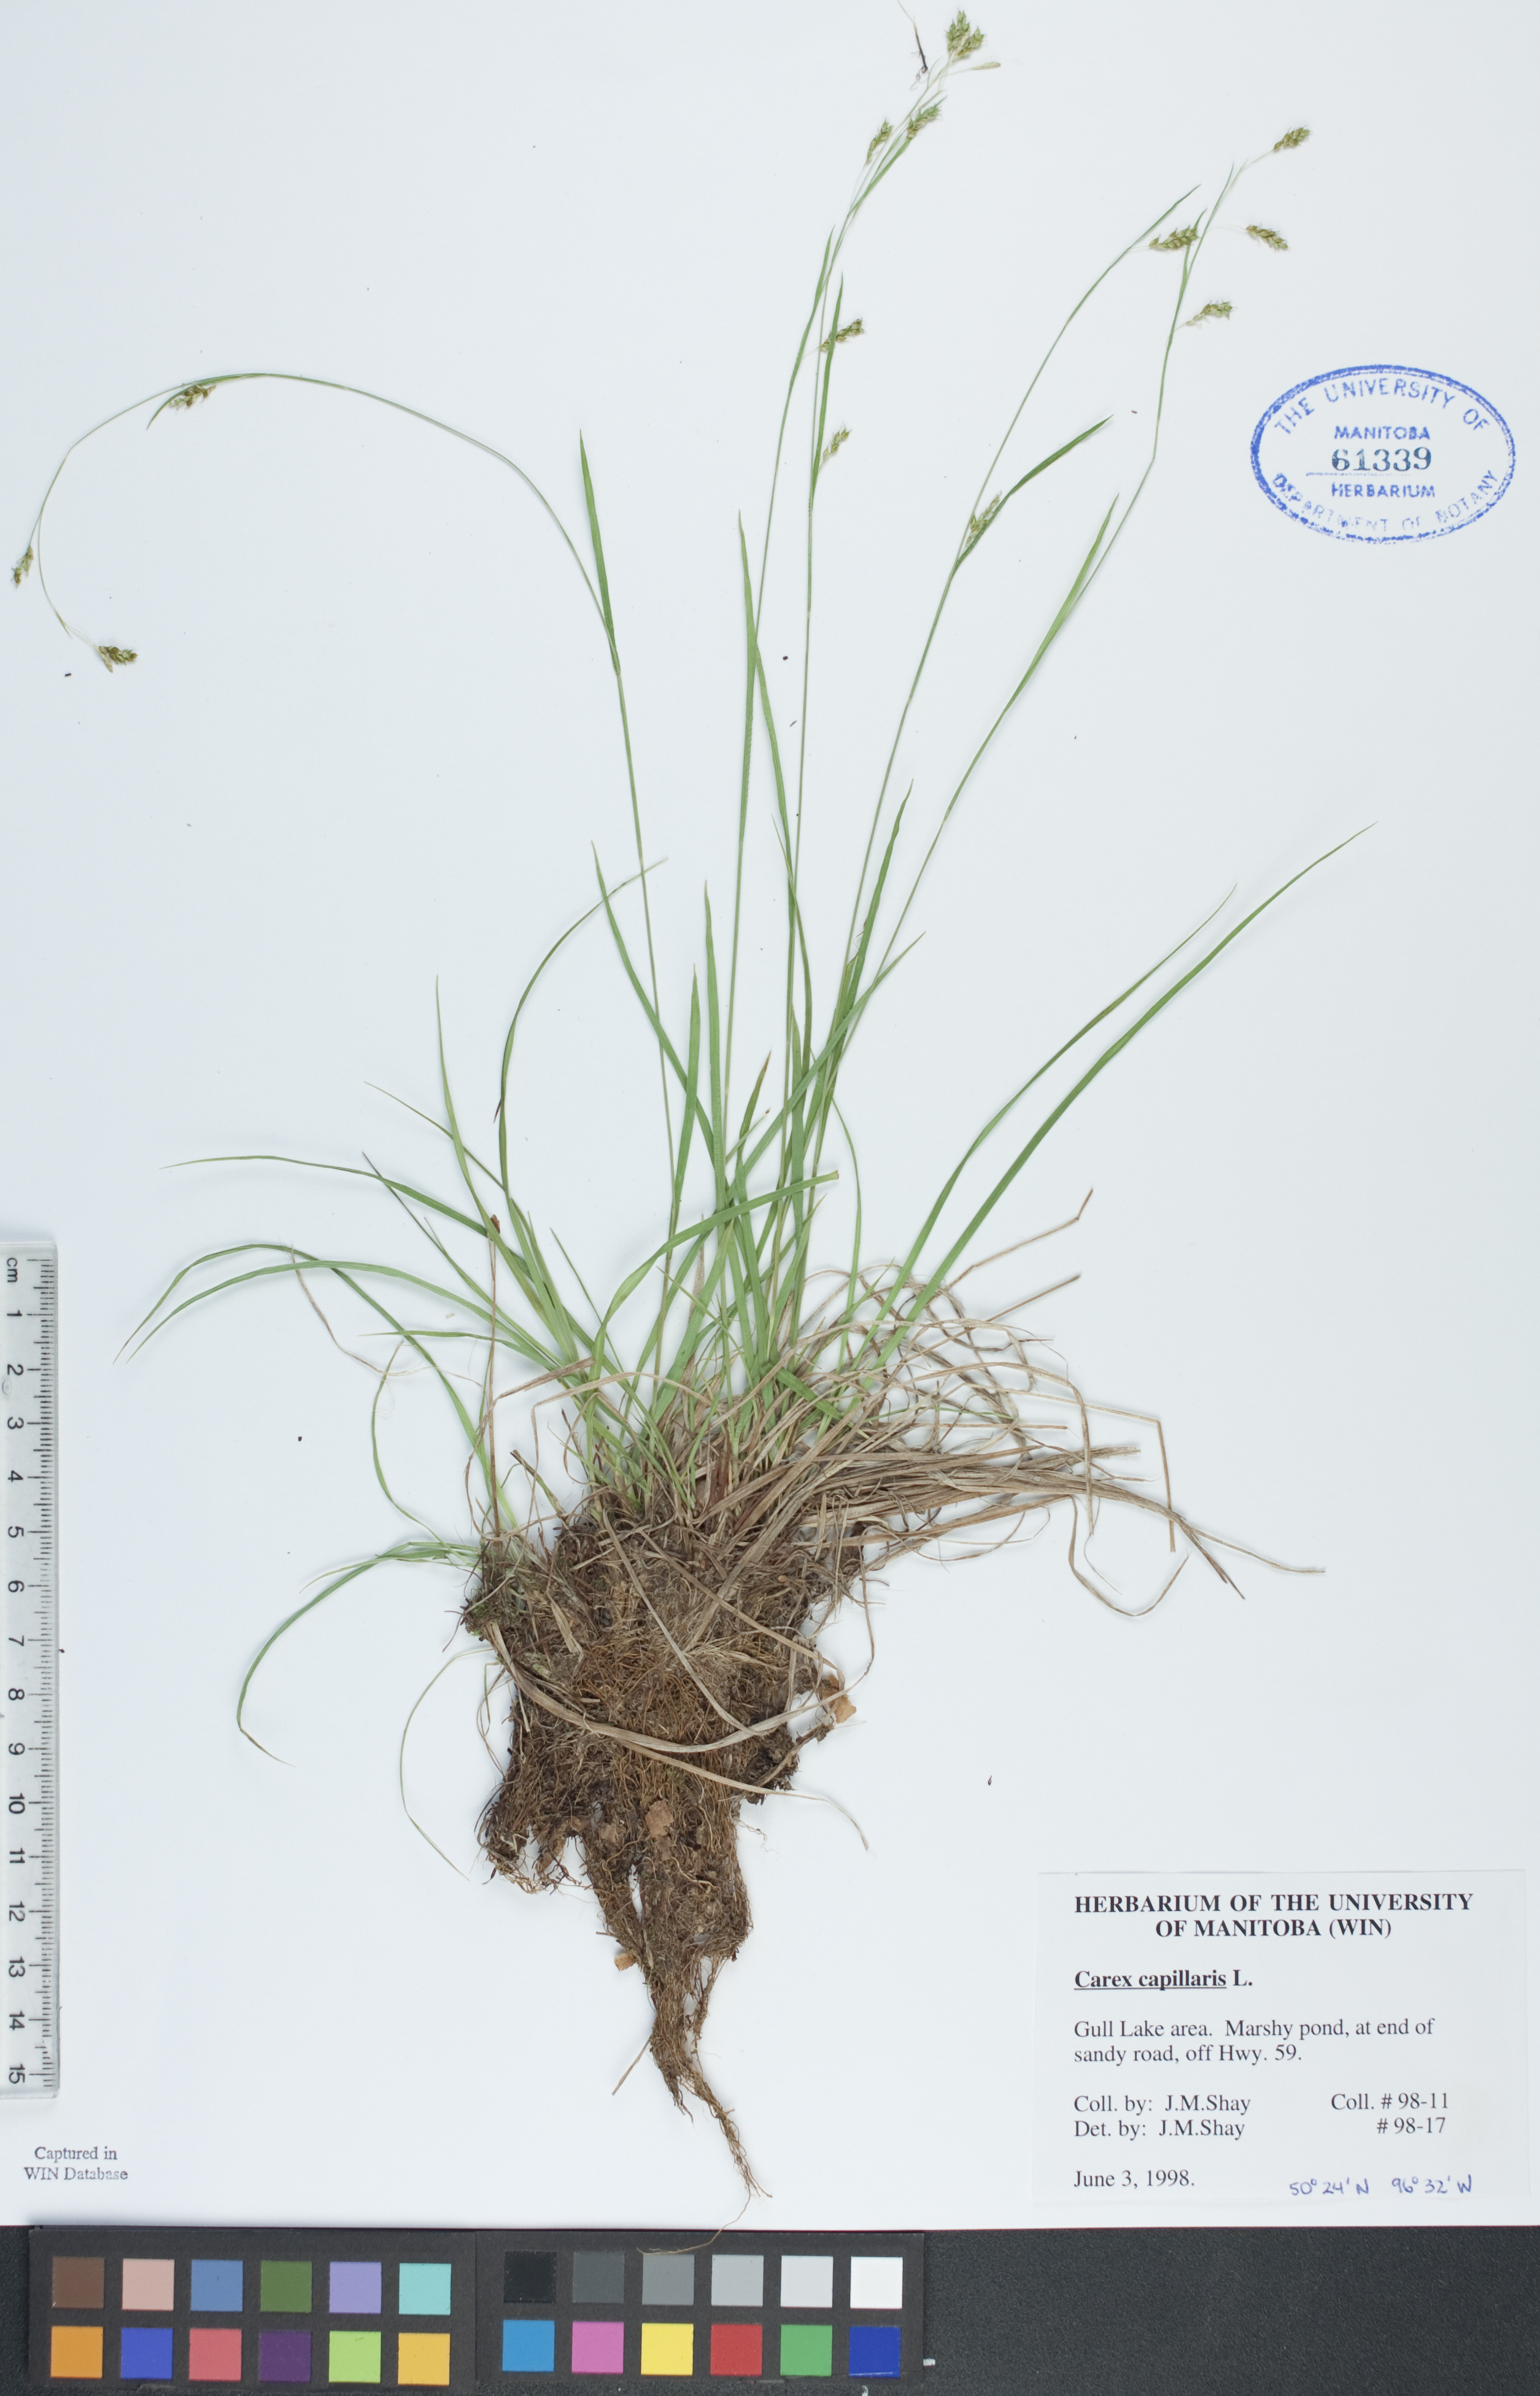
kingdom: Plantae
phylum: Tracheophyta
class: Liliopsida
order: Poales
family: Cyperaceae
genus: Carex
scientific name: Carex capillaris
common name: Hair sedge
